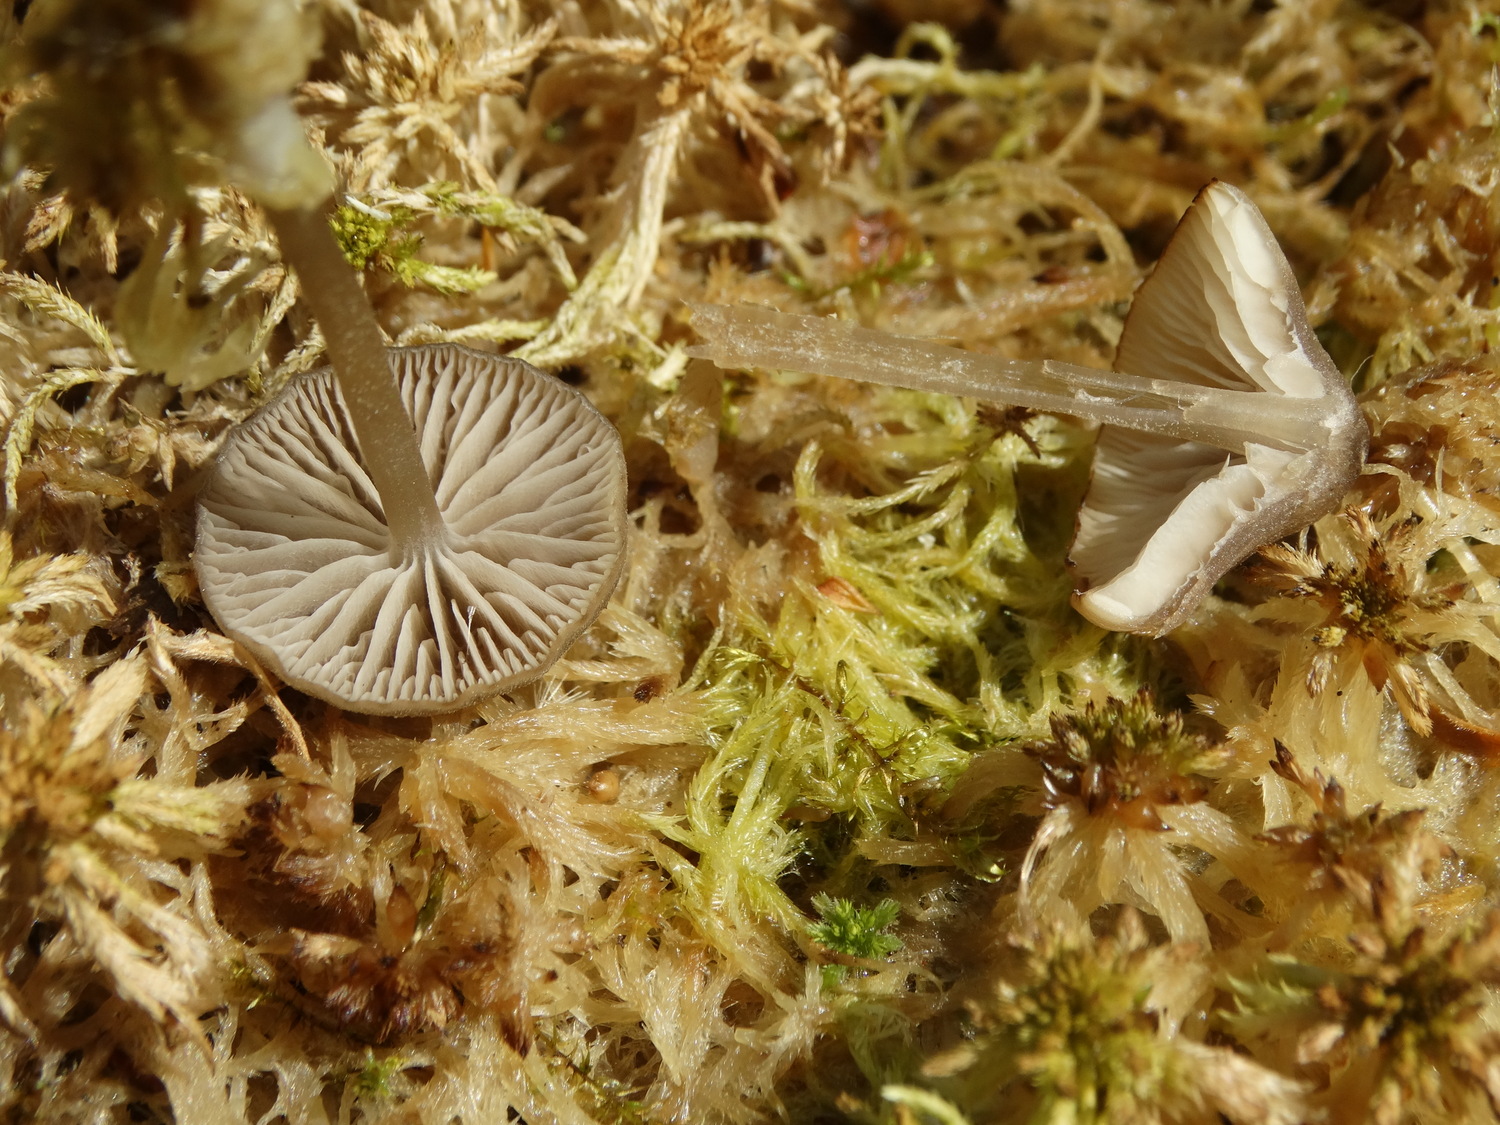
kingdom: Fungi
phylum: Basidiomycota
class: Agaricomycetes
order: Agaricales
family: Lyophyllaceae
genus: Sphagnurus
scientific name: Sphagnurus paluster
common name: tørvemos-gråblad
